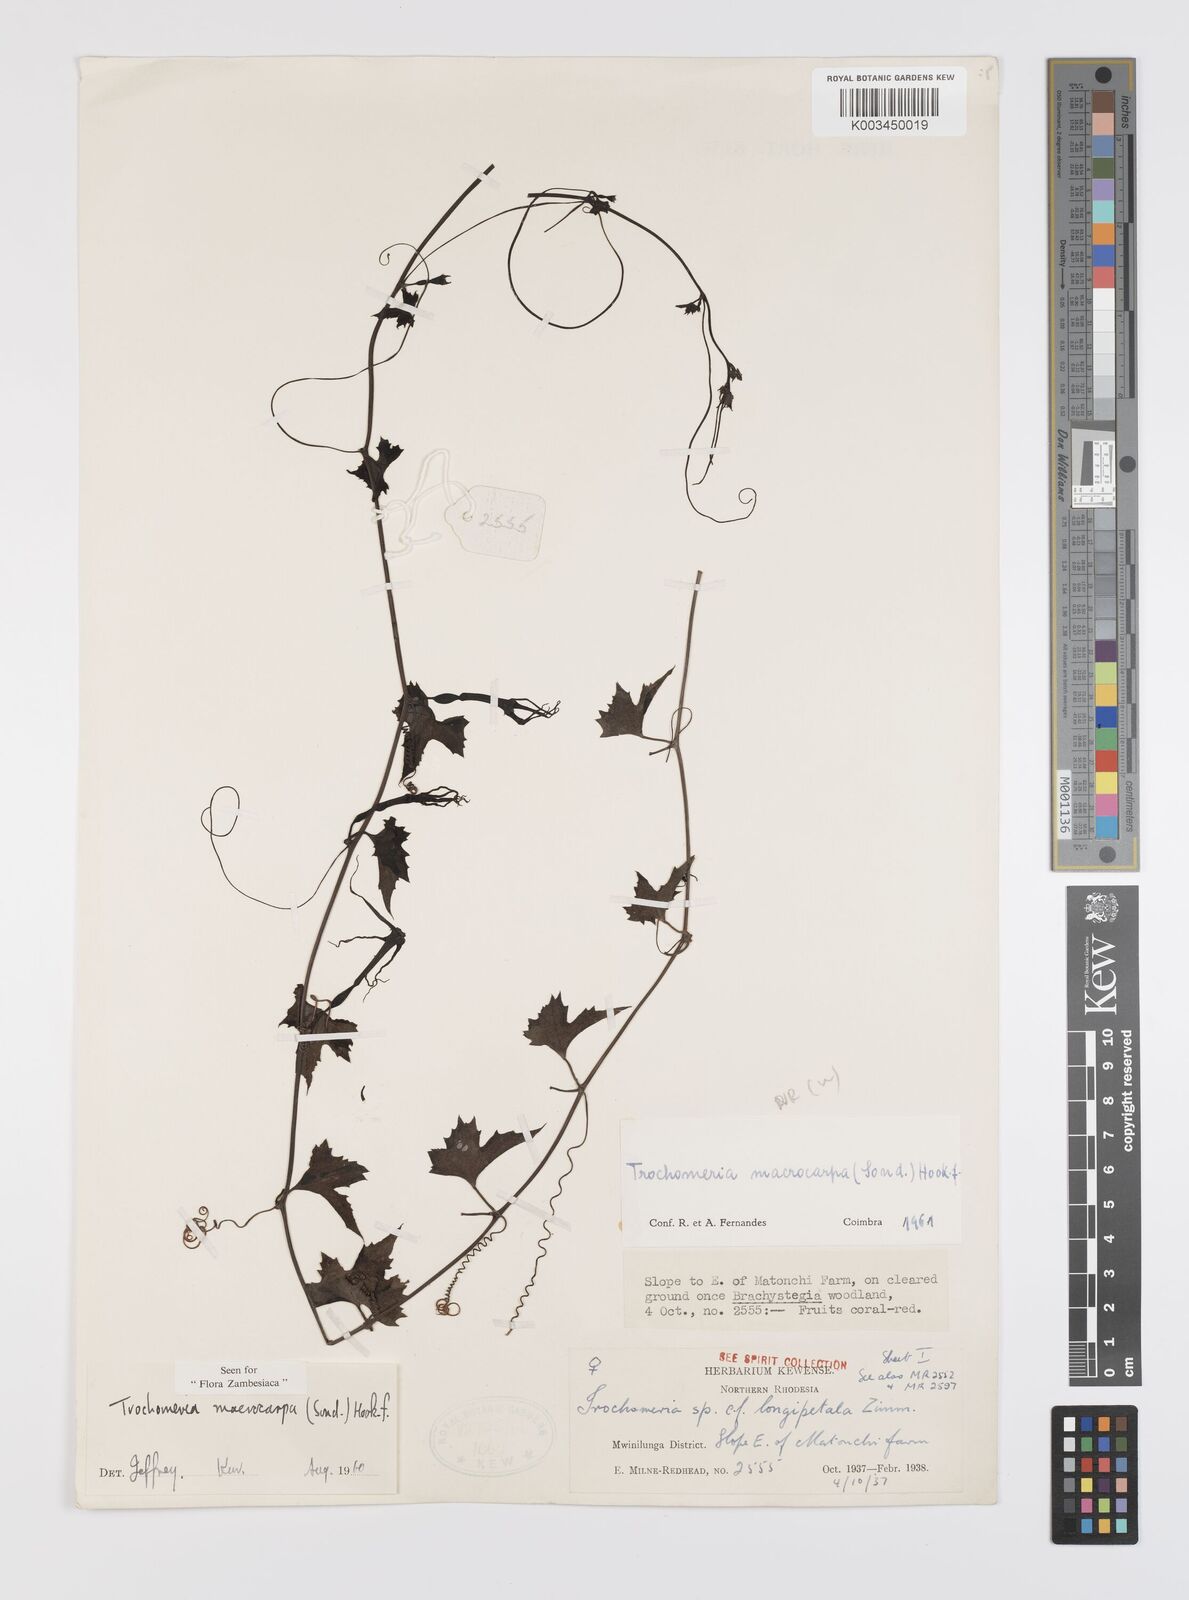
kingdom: Plantae
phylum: Tracheophyta
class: Magnoliopsida
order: Cucurbitales
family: Cucurbitaceae
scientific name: Cucurbitaceae
